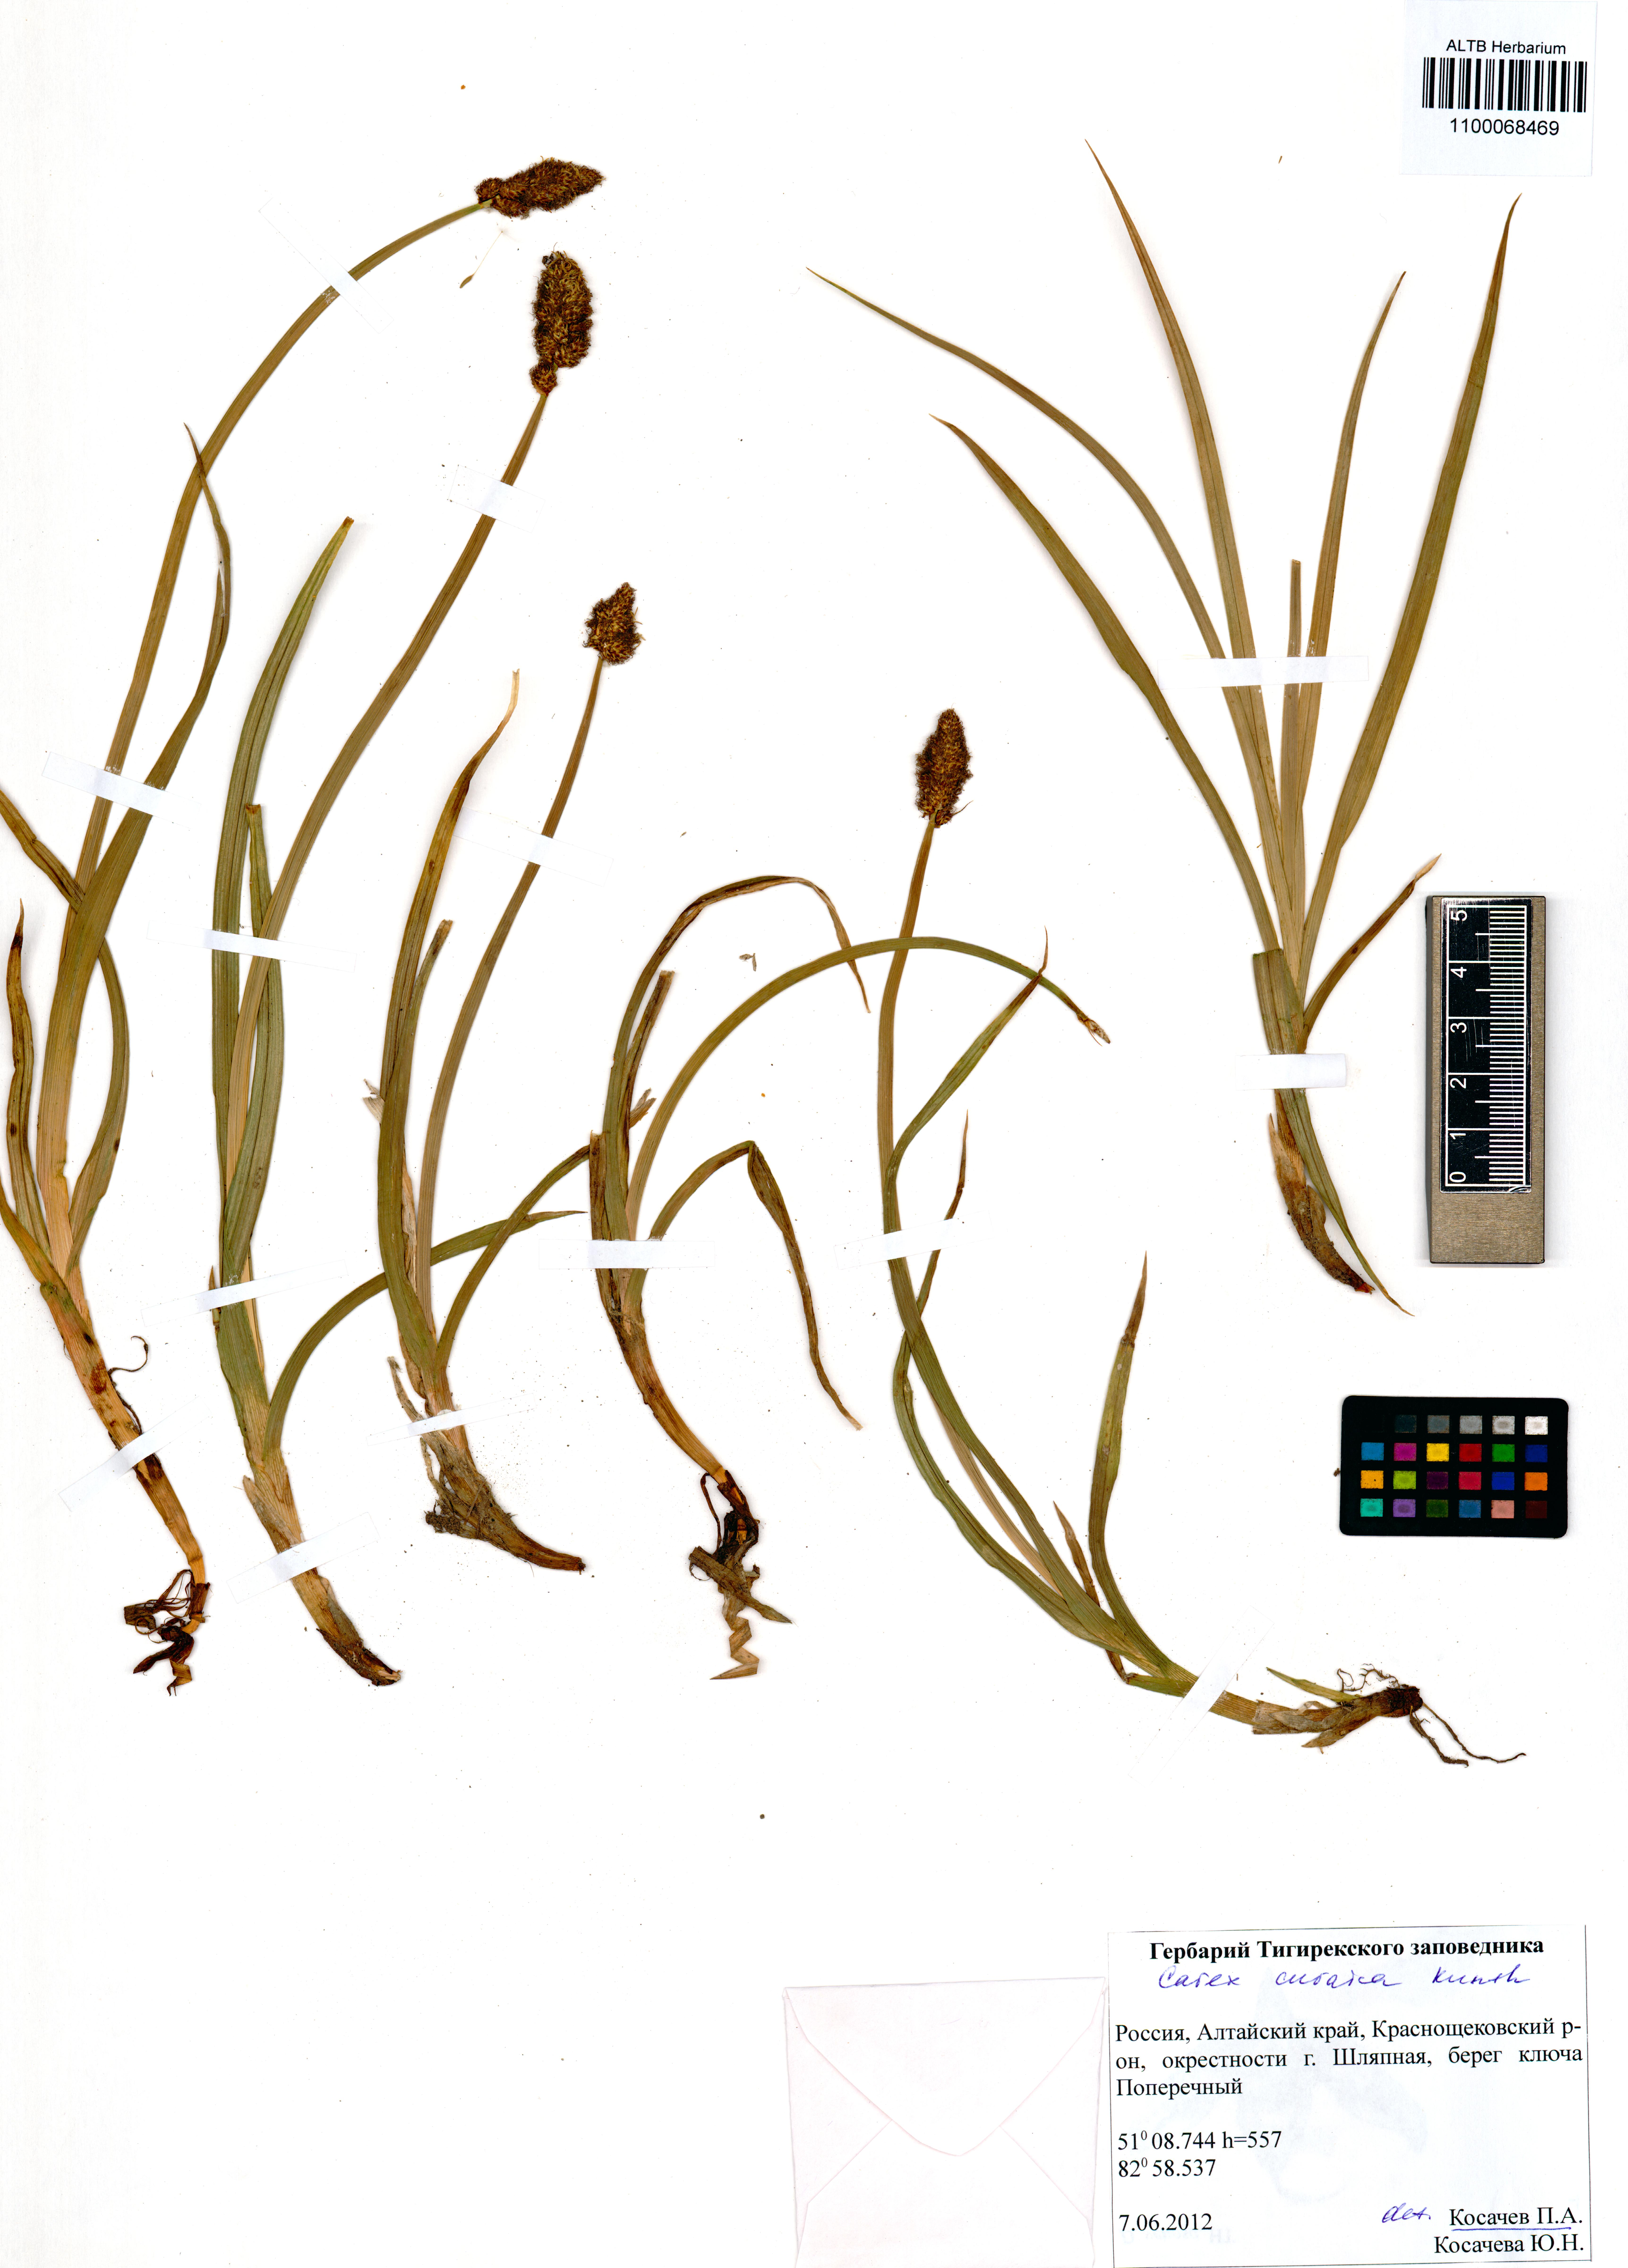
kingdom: Plantae
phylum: Tracheophyta
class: Liliopsida
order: Poales
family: Cyperaceae
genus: Carex
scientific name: Carex curaica
